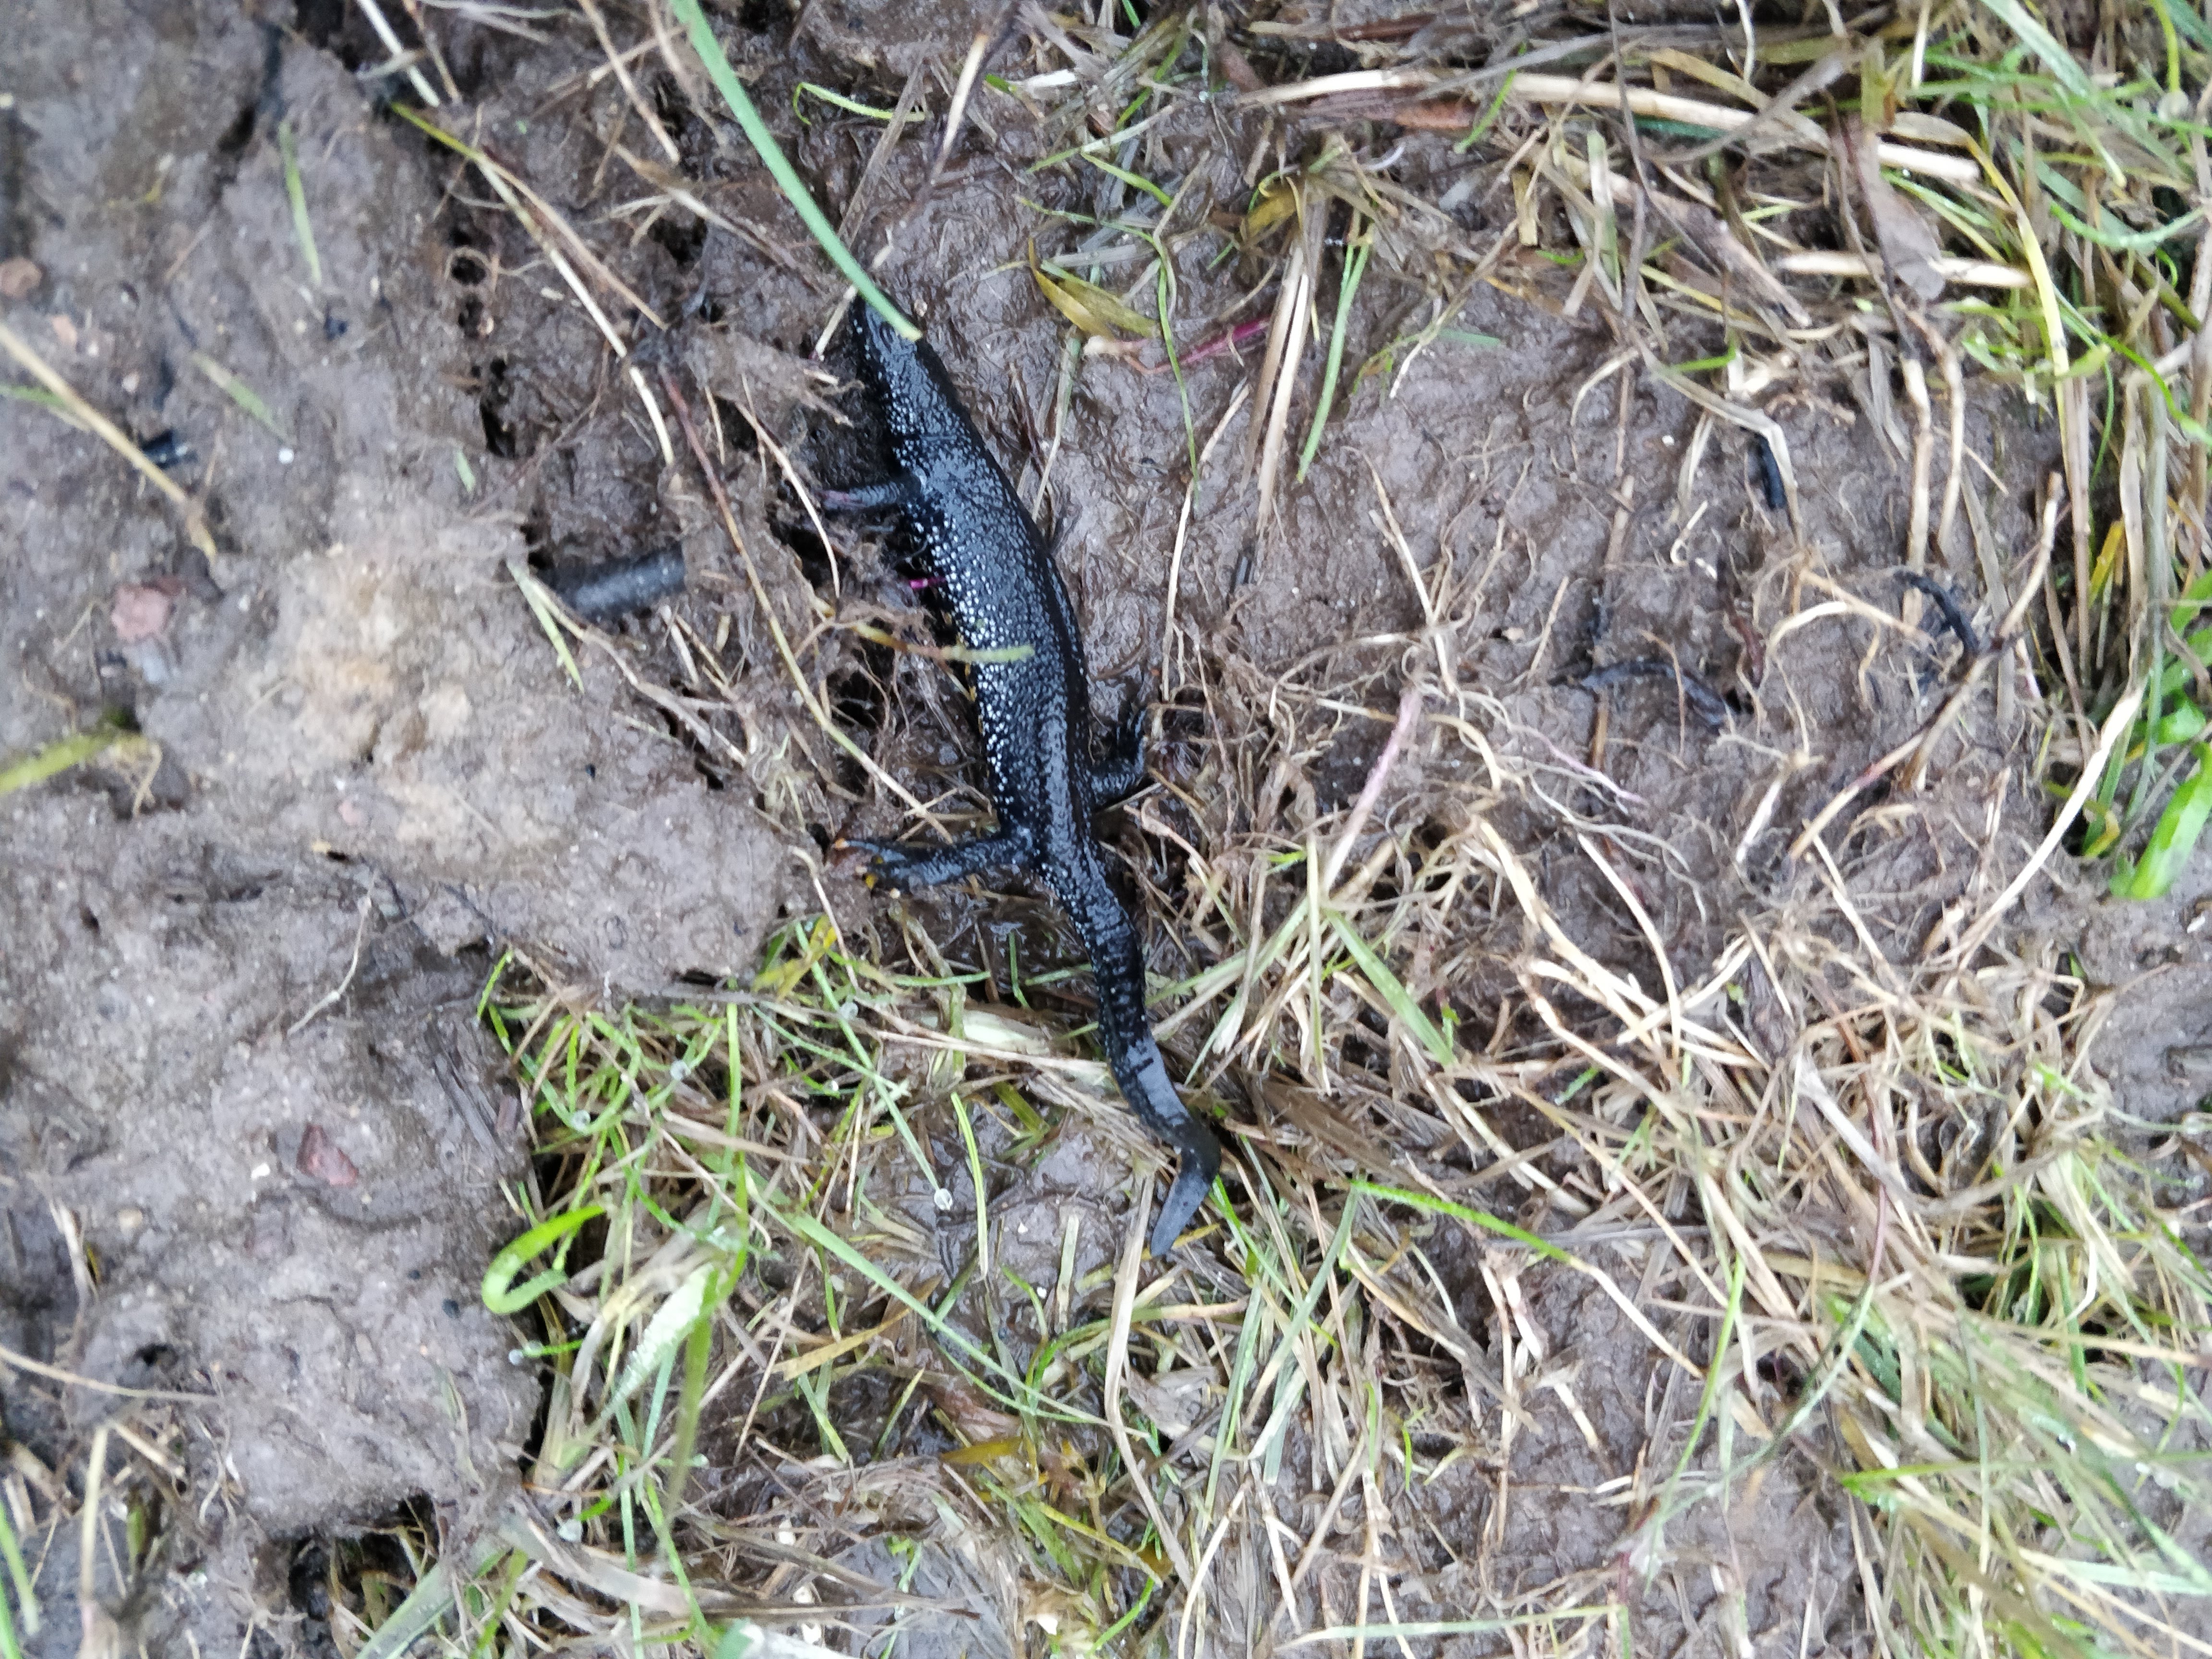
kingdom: Animalia
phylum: Chordata
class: Amphibia
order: Caudata
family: Salamandridae
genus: Triturus
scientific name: Triturus cristatus
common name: Stor vandsalamander
